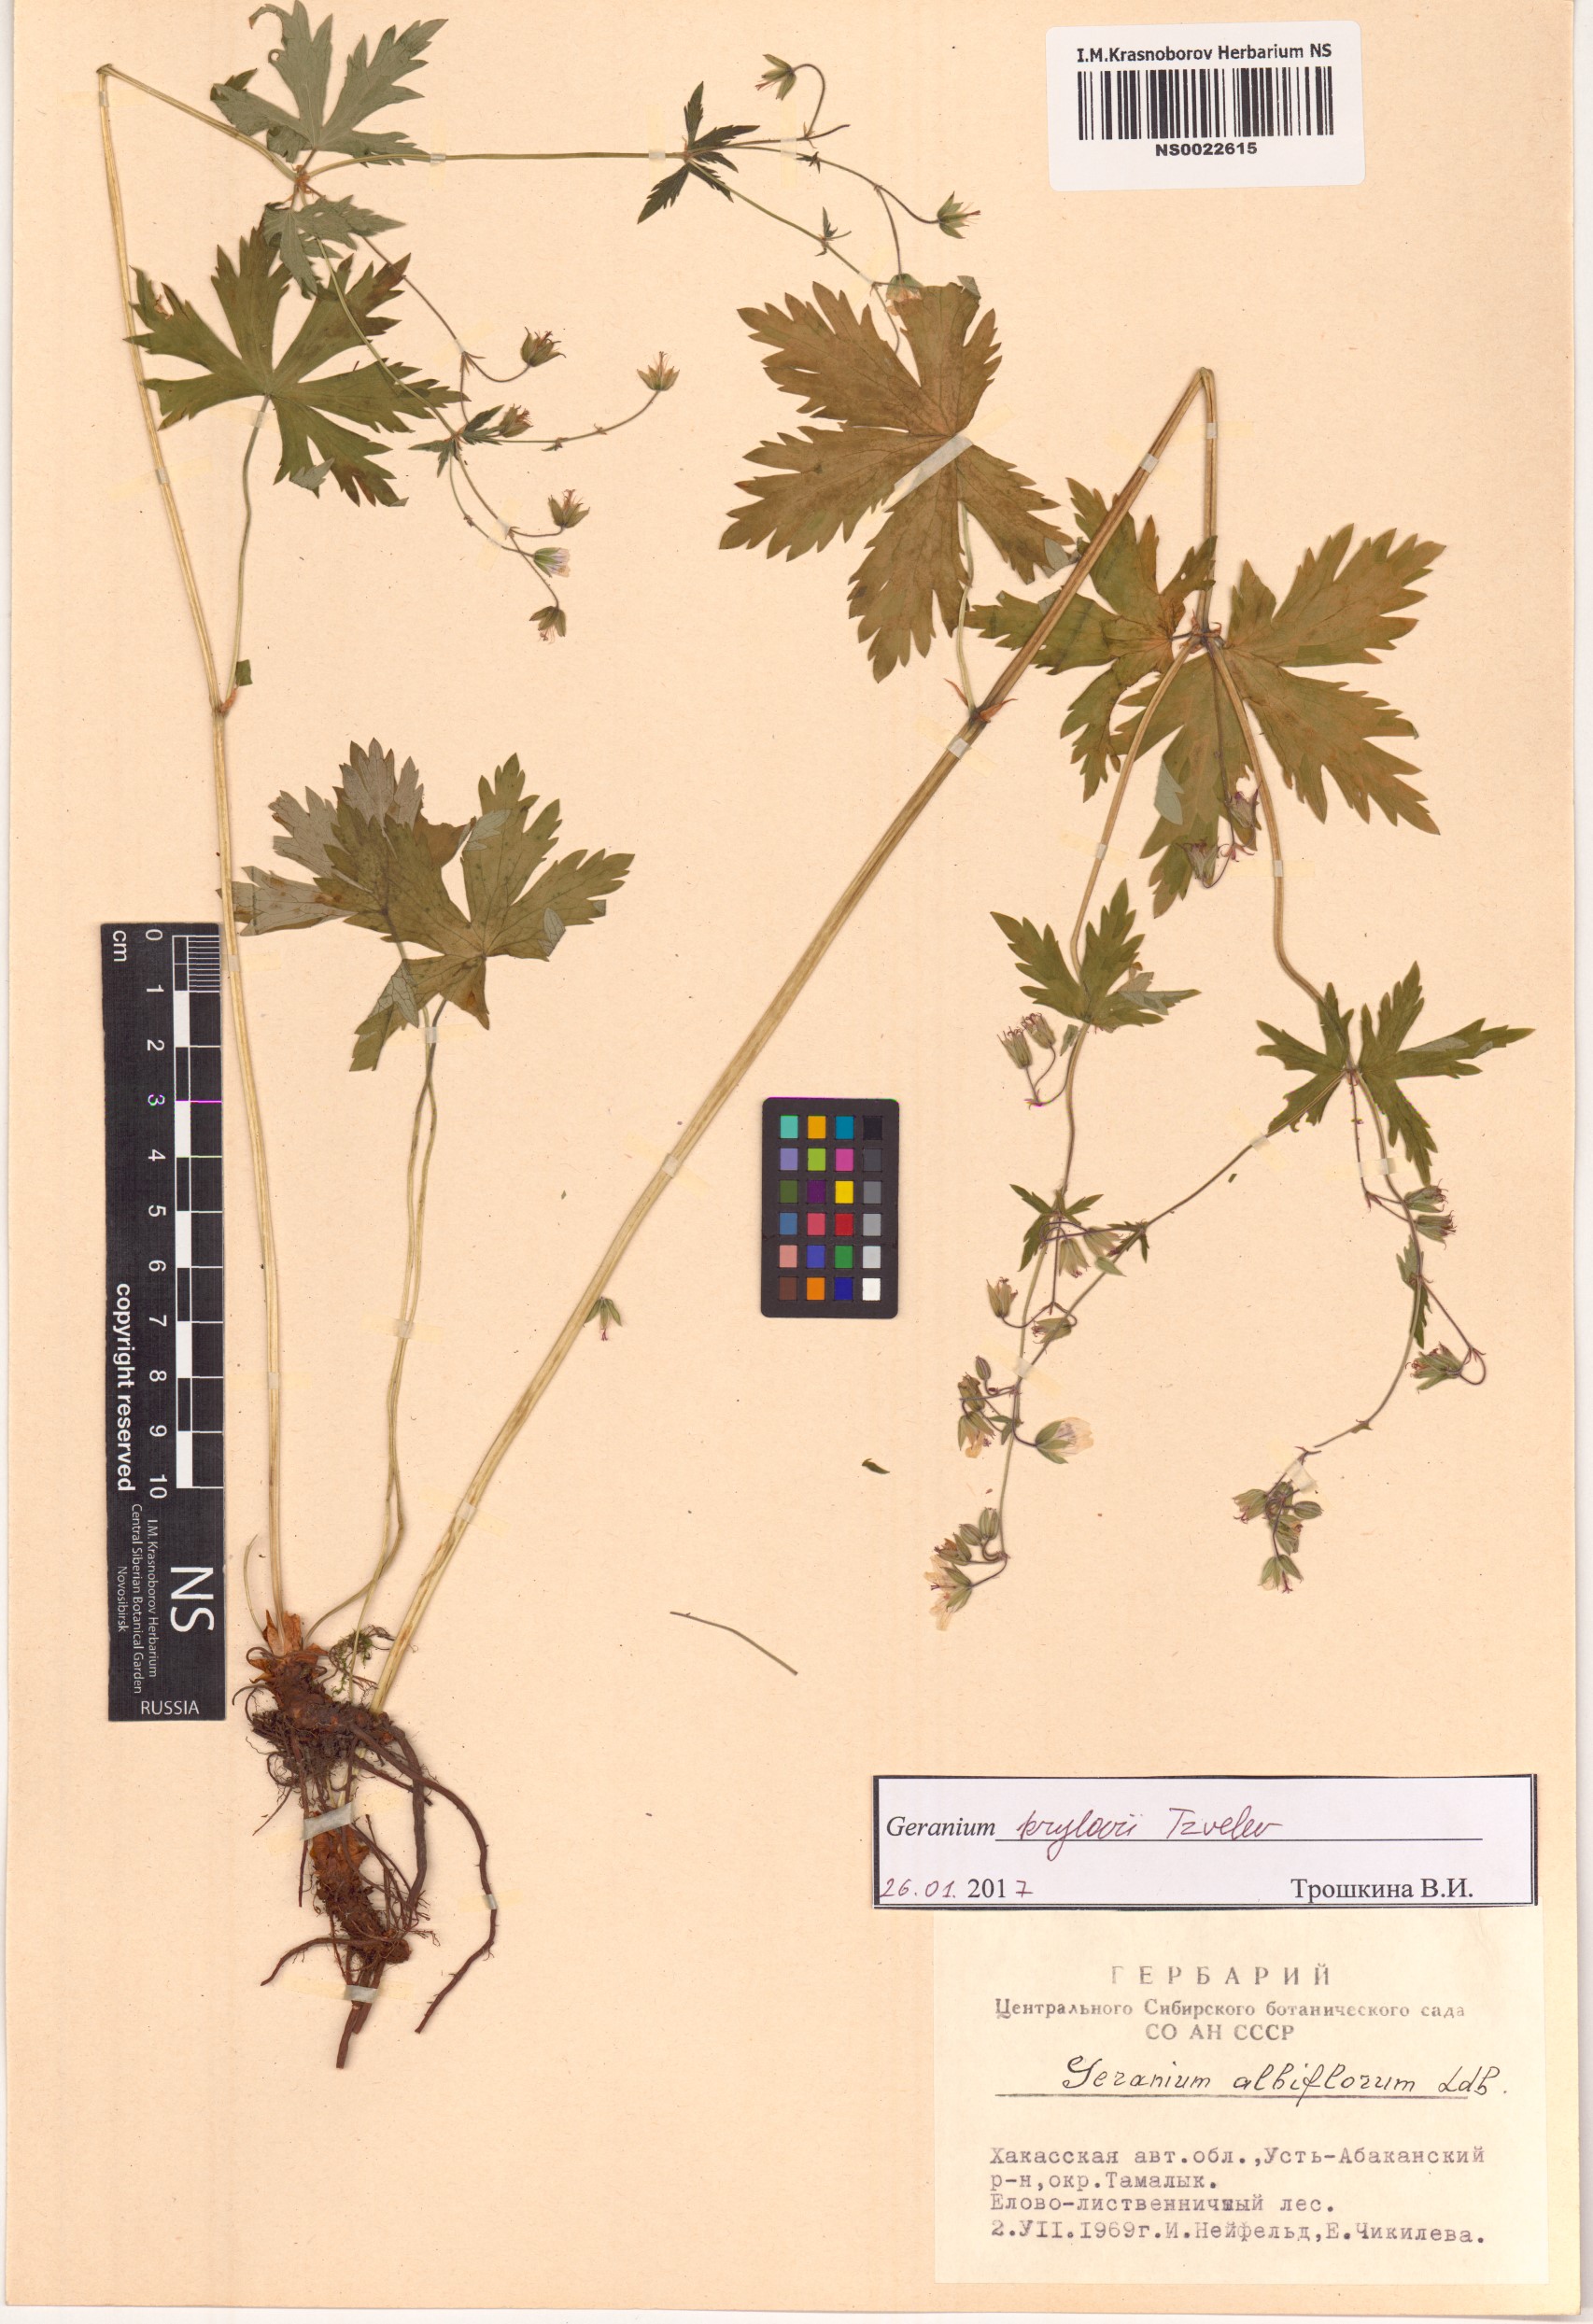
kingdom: Plantae
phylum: Tracheophyta
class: Magnoliopsida
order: Geraniales
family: Geraniaceae
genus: Geranium
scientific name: Geranium sylvaticum
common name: Wood crane's-bill
